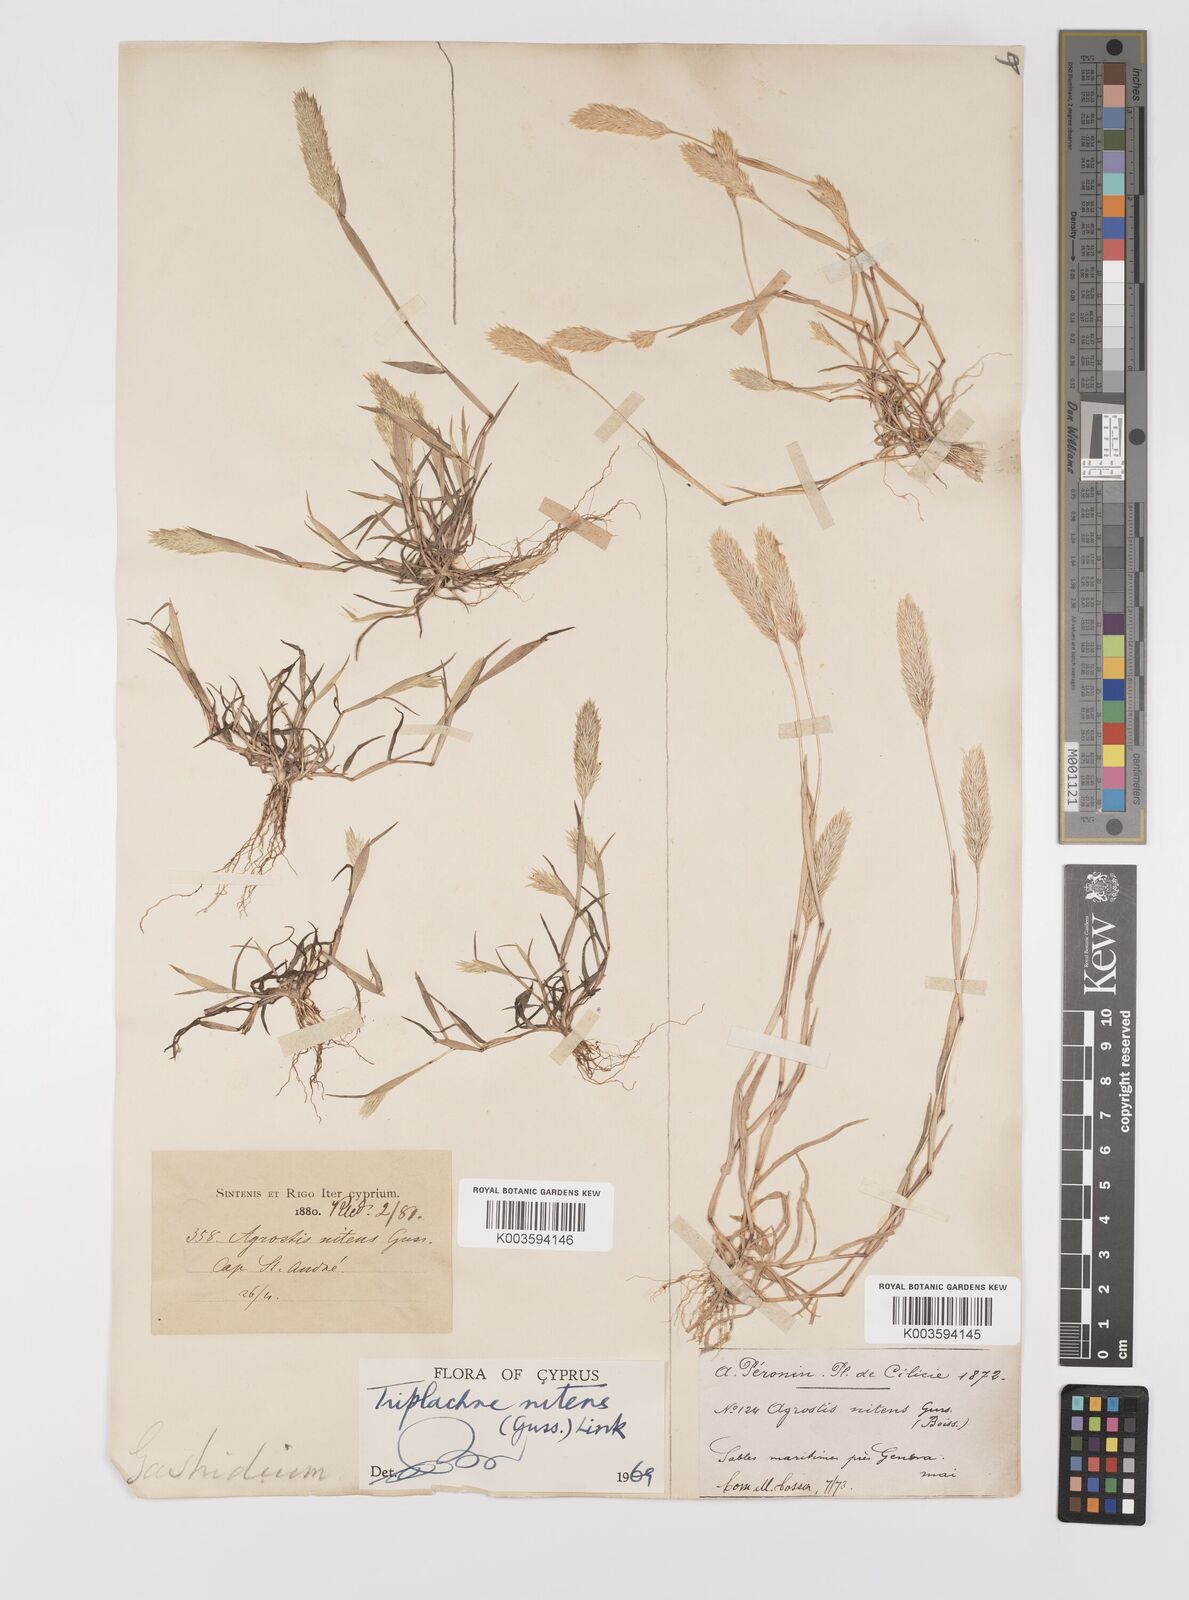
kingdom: Plantae
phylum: Tracheophyta
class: Liliopsida
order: Poales
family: Poaceae
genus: Triplachne
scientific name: Triplachne nitens
